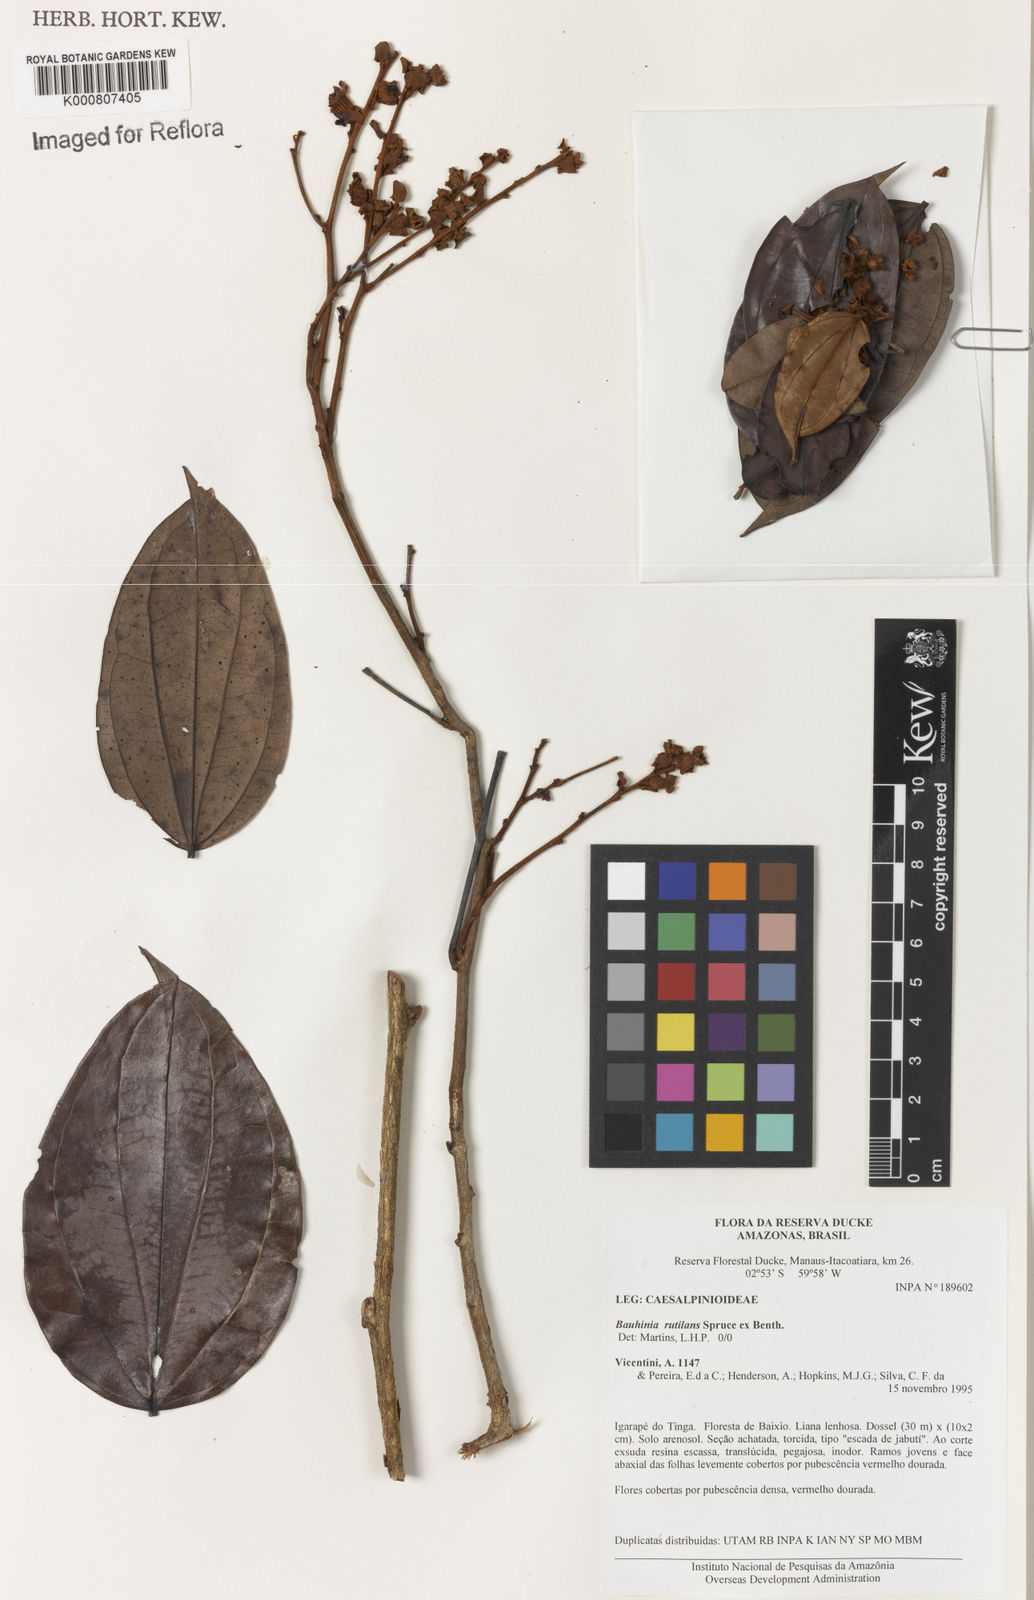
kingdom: Plantae
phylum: Tracheophyta
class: Magnoliopsida
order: Fabales
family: Fabaceae
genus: Schnella
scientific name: Schnella rutilans
